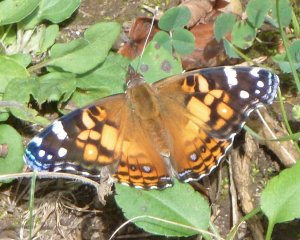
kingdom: Animalia
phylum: Arthropoda
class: Insecta
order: Lepidoptera
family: Nymphalidae
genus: Vanessa
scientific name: Vanessa virginiensis
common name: American Lady
